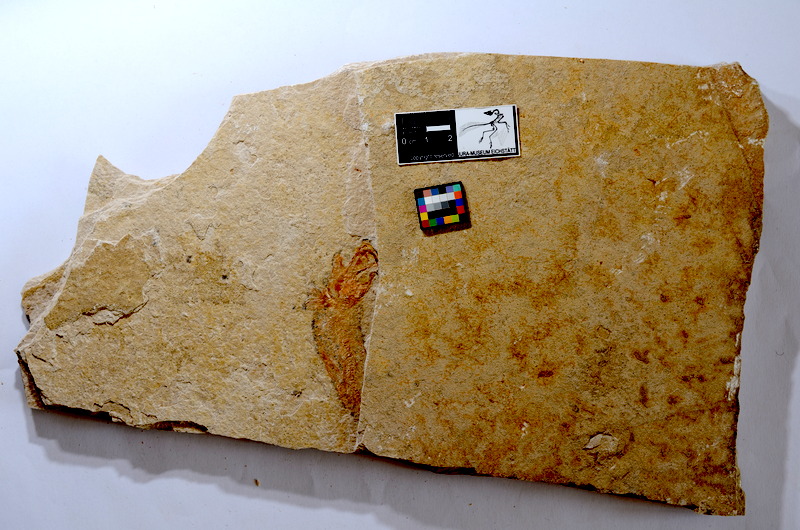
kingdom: Animalia
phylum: Chordata
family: Ascalaboidae
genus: Tharsis
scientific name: Tharsis dubius
